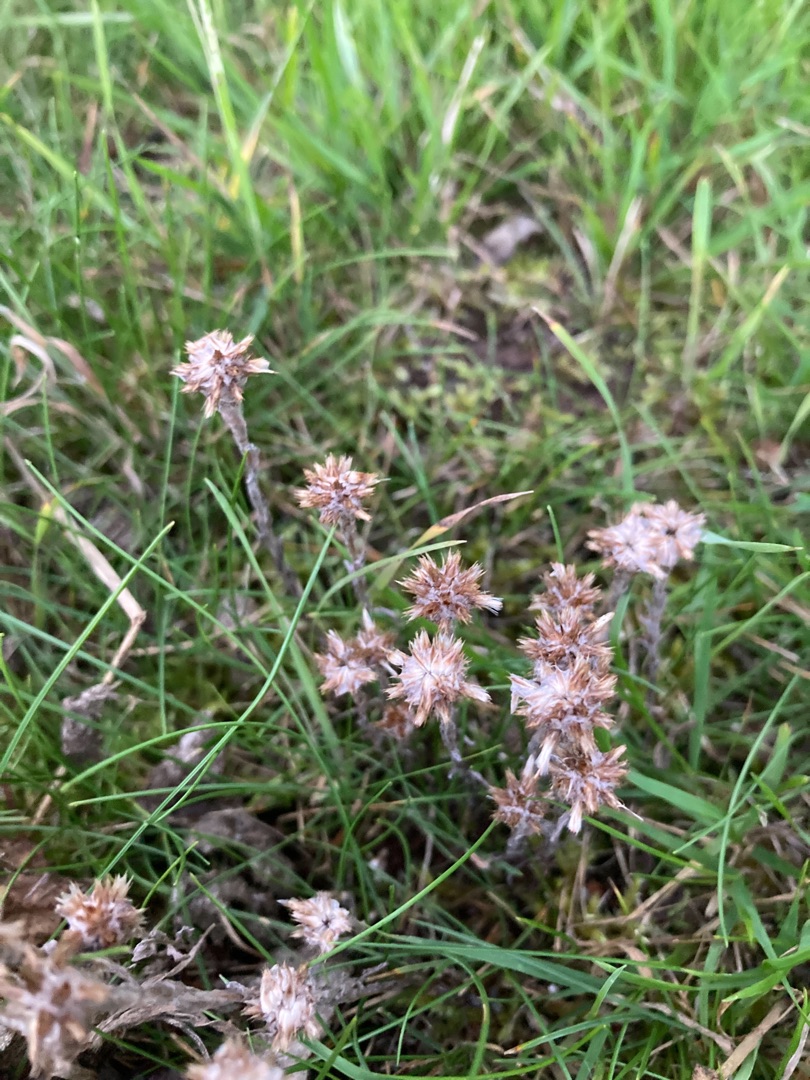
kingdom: Plantae
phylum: Tracheophyta
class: Magnoliopsida
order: Asterales
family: Asteraceae
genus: Antennaria
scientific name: Antennaria dioica
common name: Kattefod
